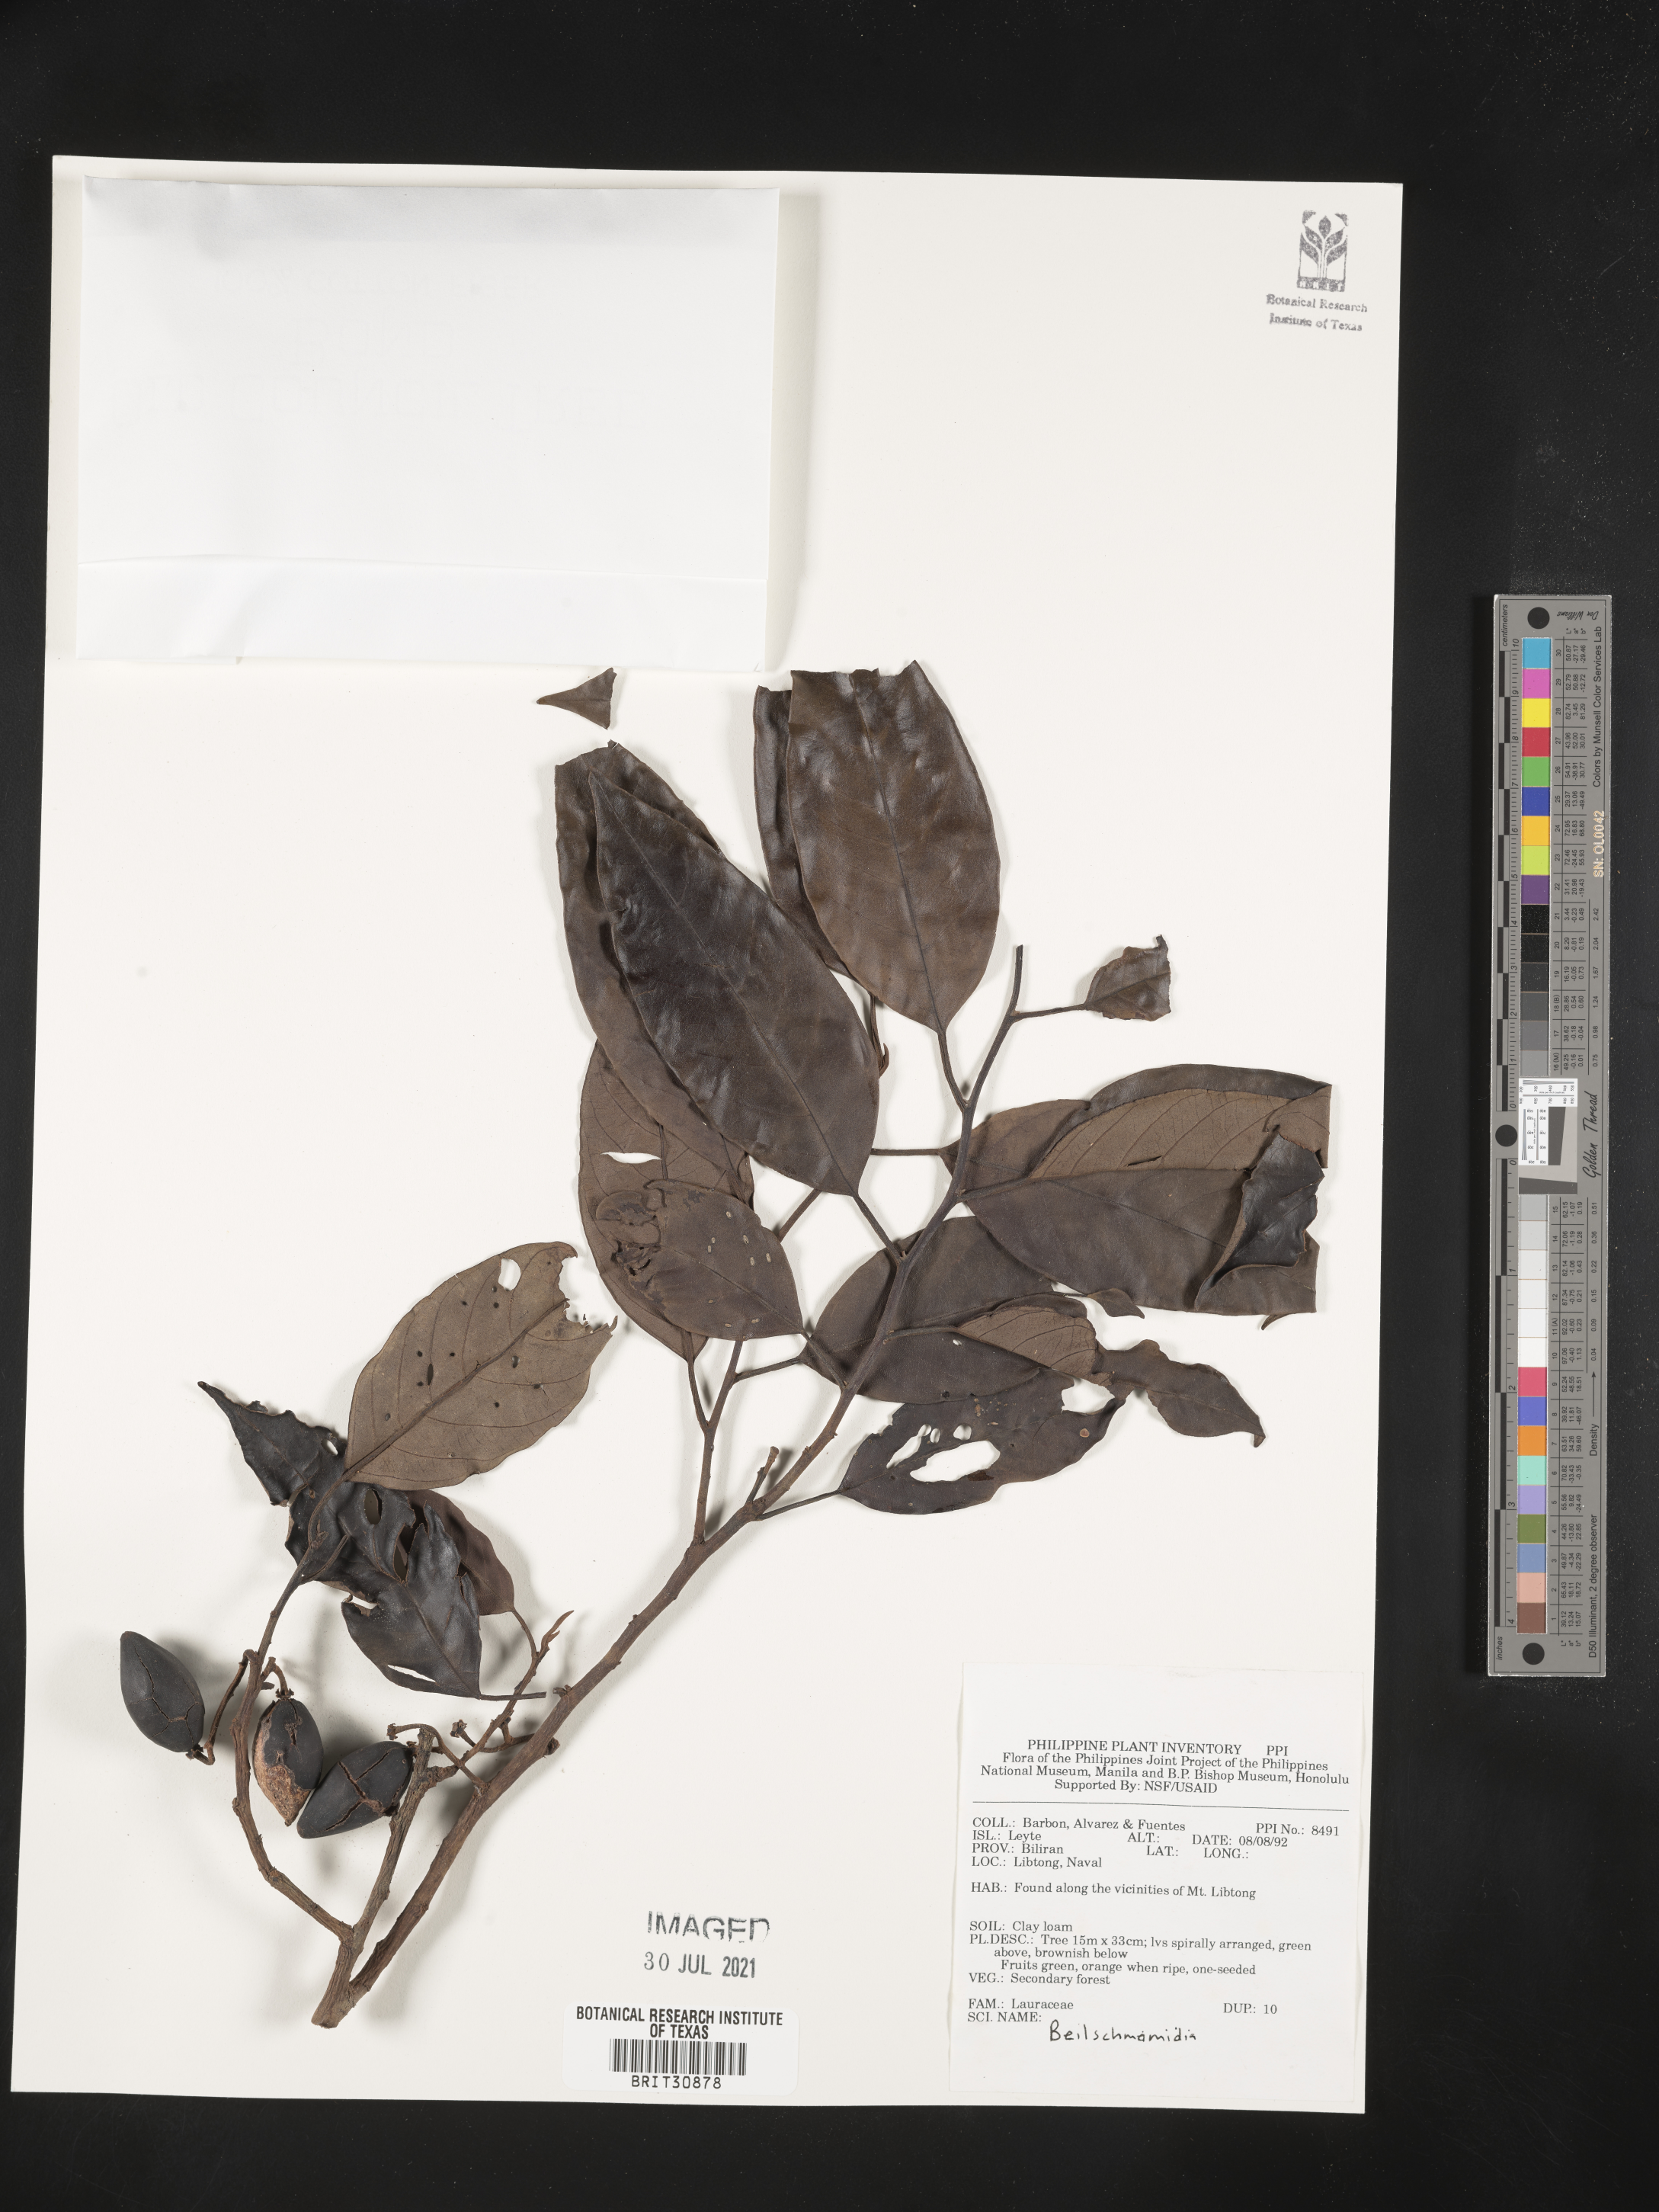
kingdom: Plantae
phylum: Tracheophyta
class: Magnoliopsida
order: Laurales
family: Lauraceae
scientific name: Lauraceae
